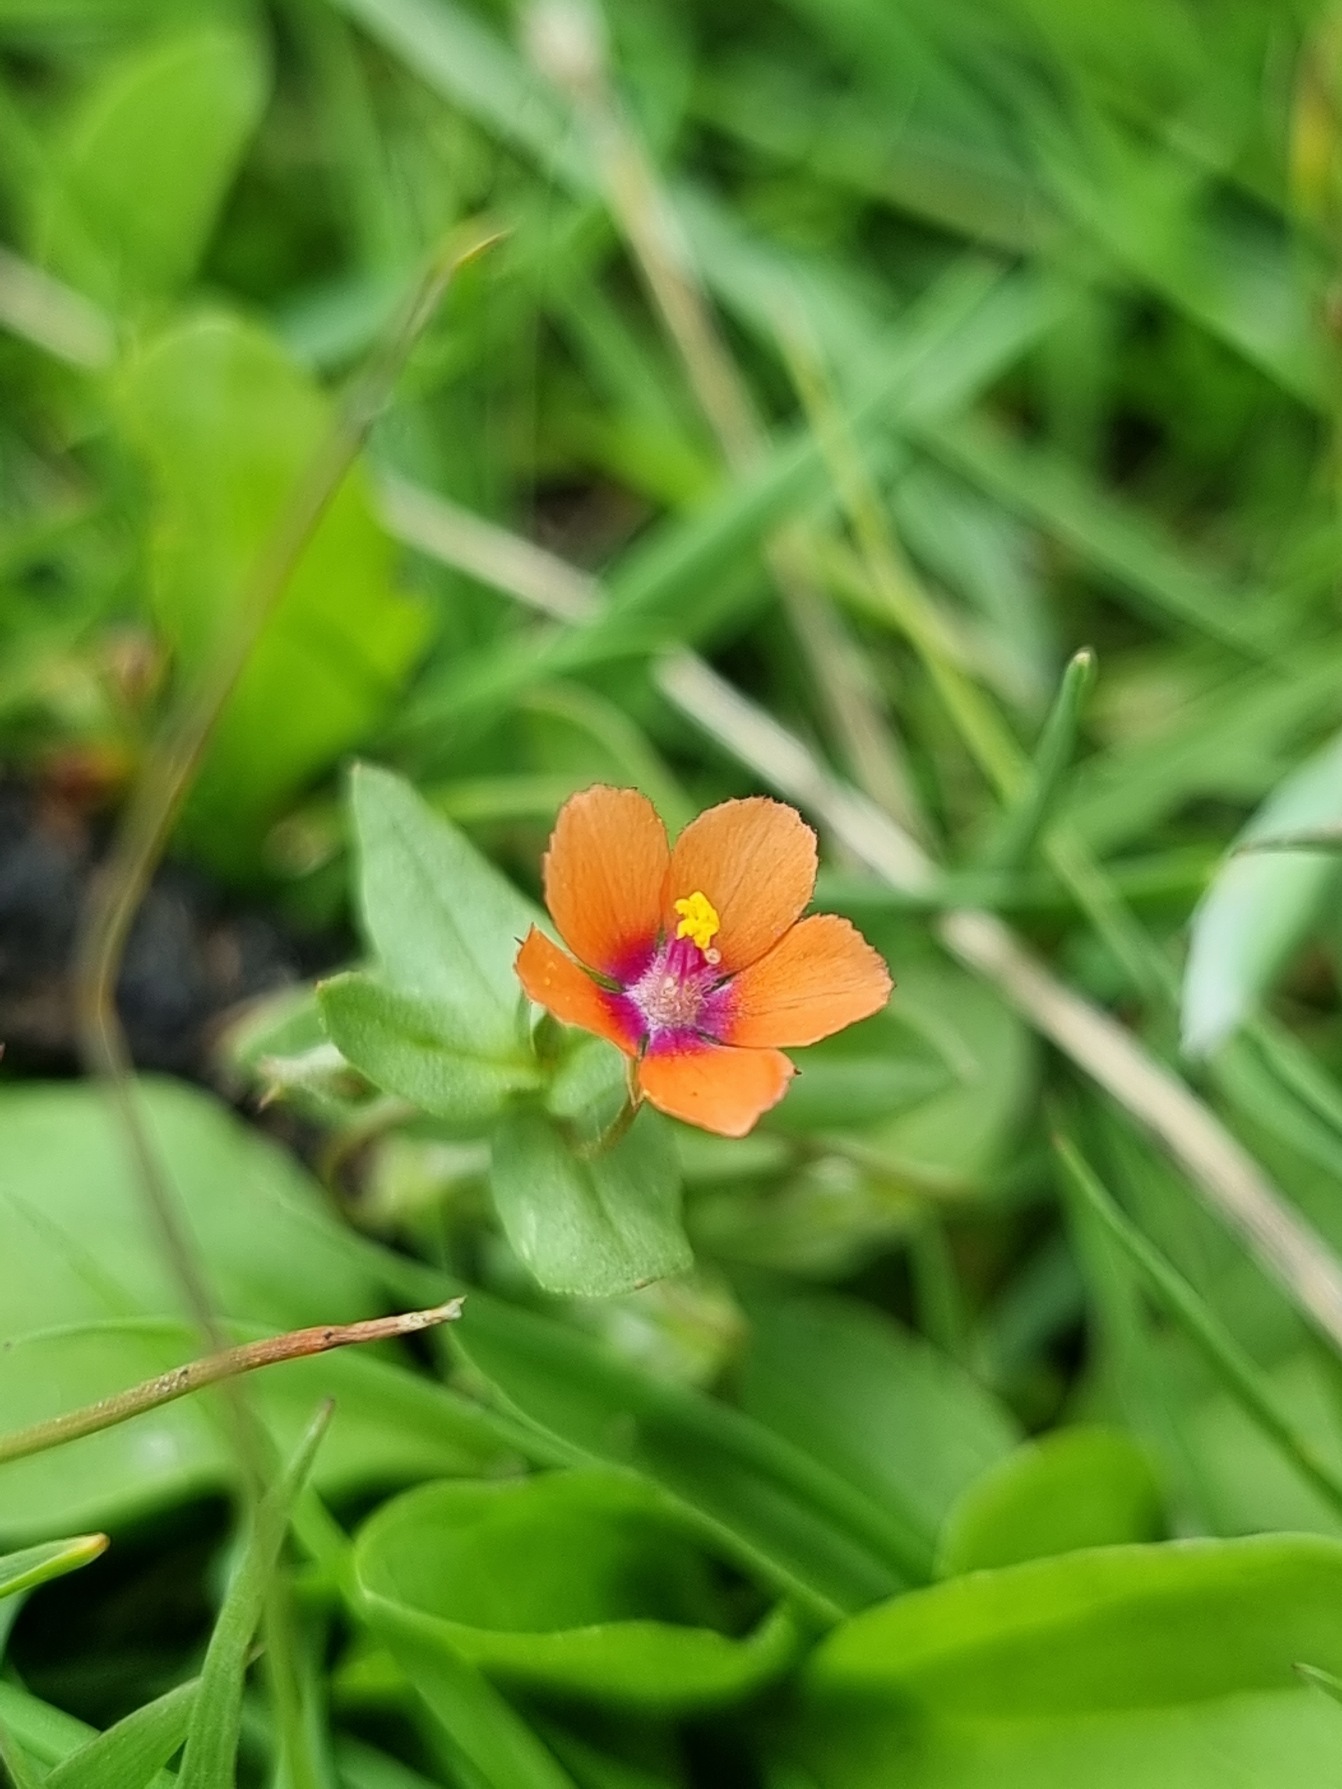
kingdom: Plantae
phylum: Tracheophyta
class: Magnoliopsida
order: Ericales
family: Primulaceae
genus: Lysimachia
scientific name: Lysimachia arvensis
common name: Rød arve
